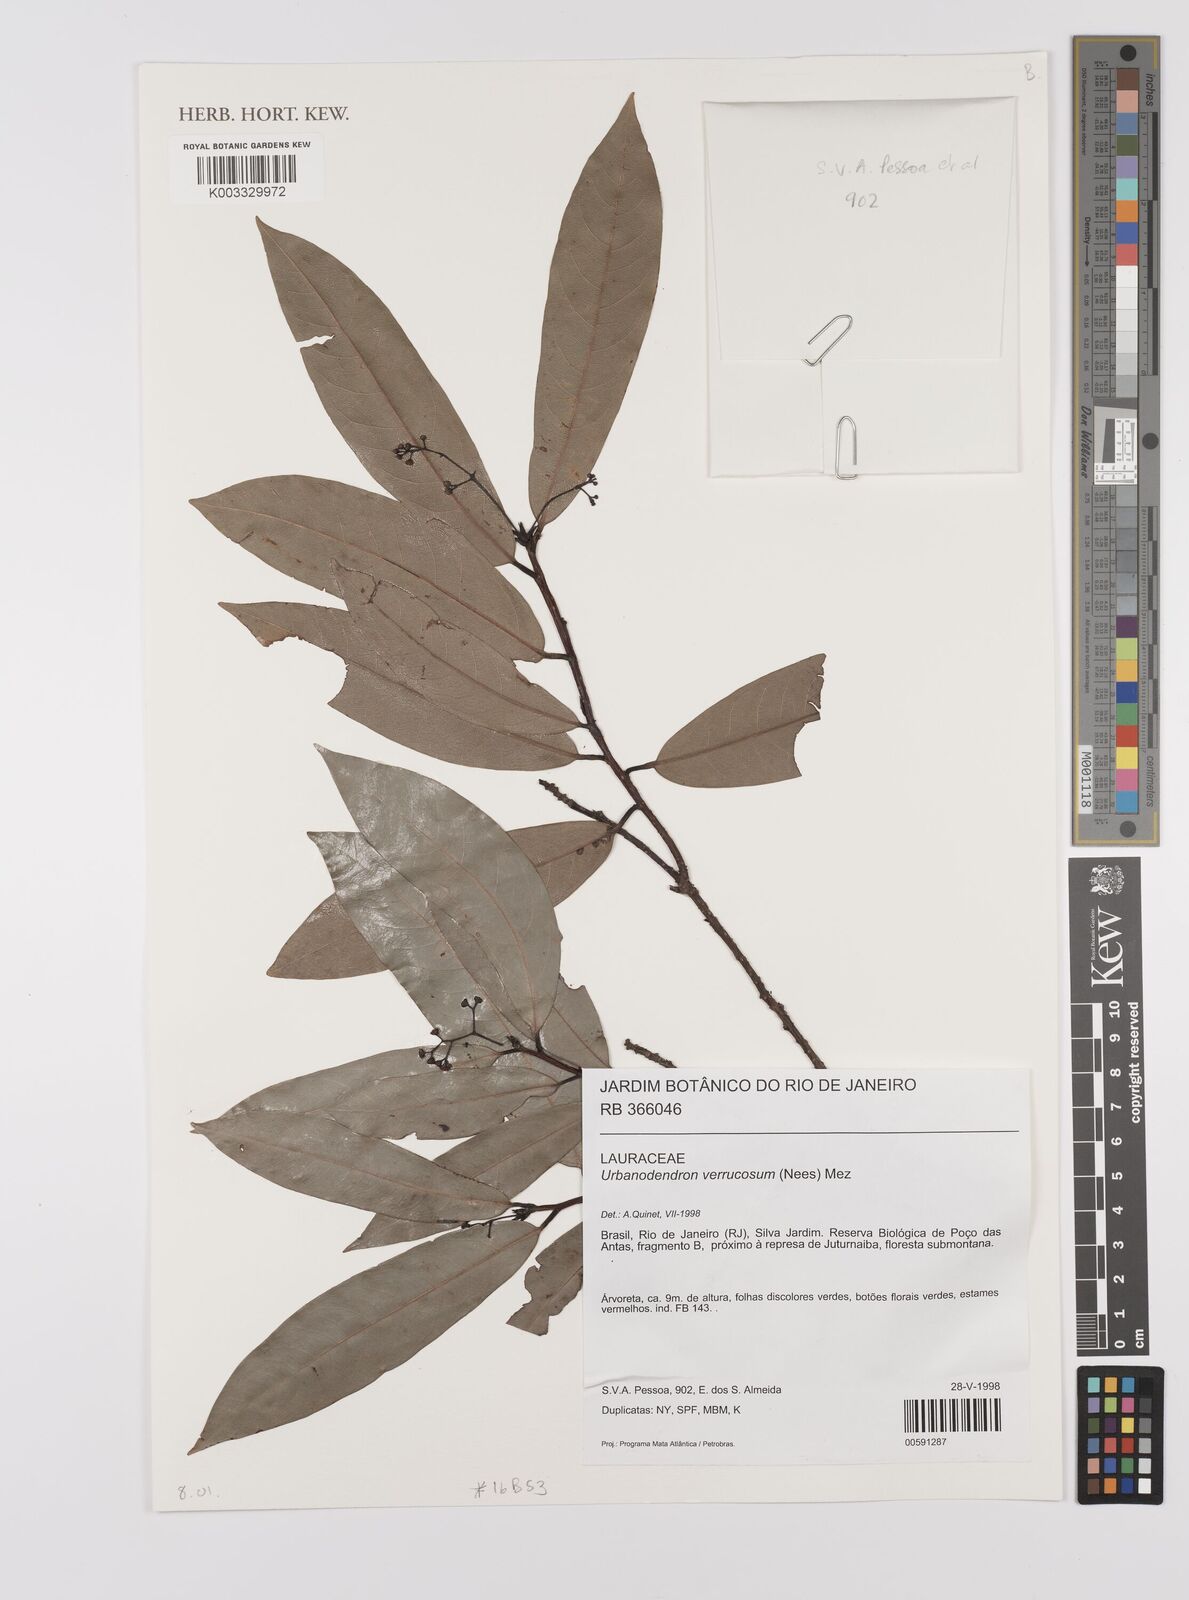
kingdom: Plantae
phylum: Tracheophyta
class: Magnoliopsida
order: Laurales
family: Lauraceae
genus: Urbanodendron
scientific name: Urbanodendron verrucosum
